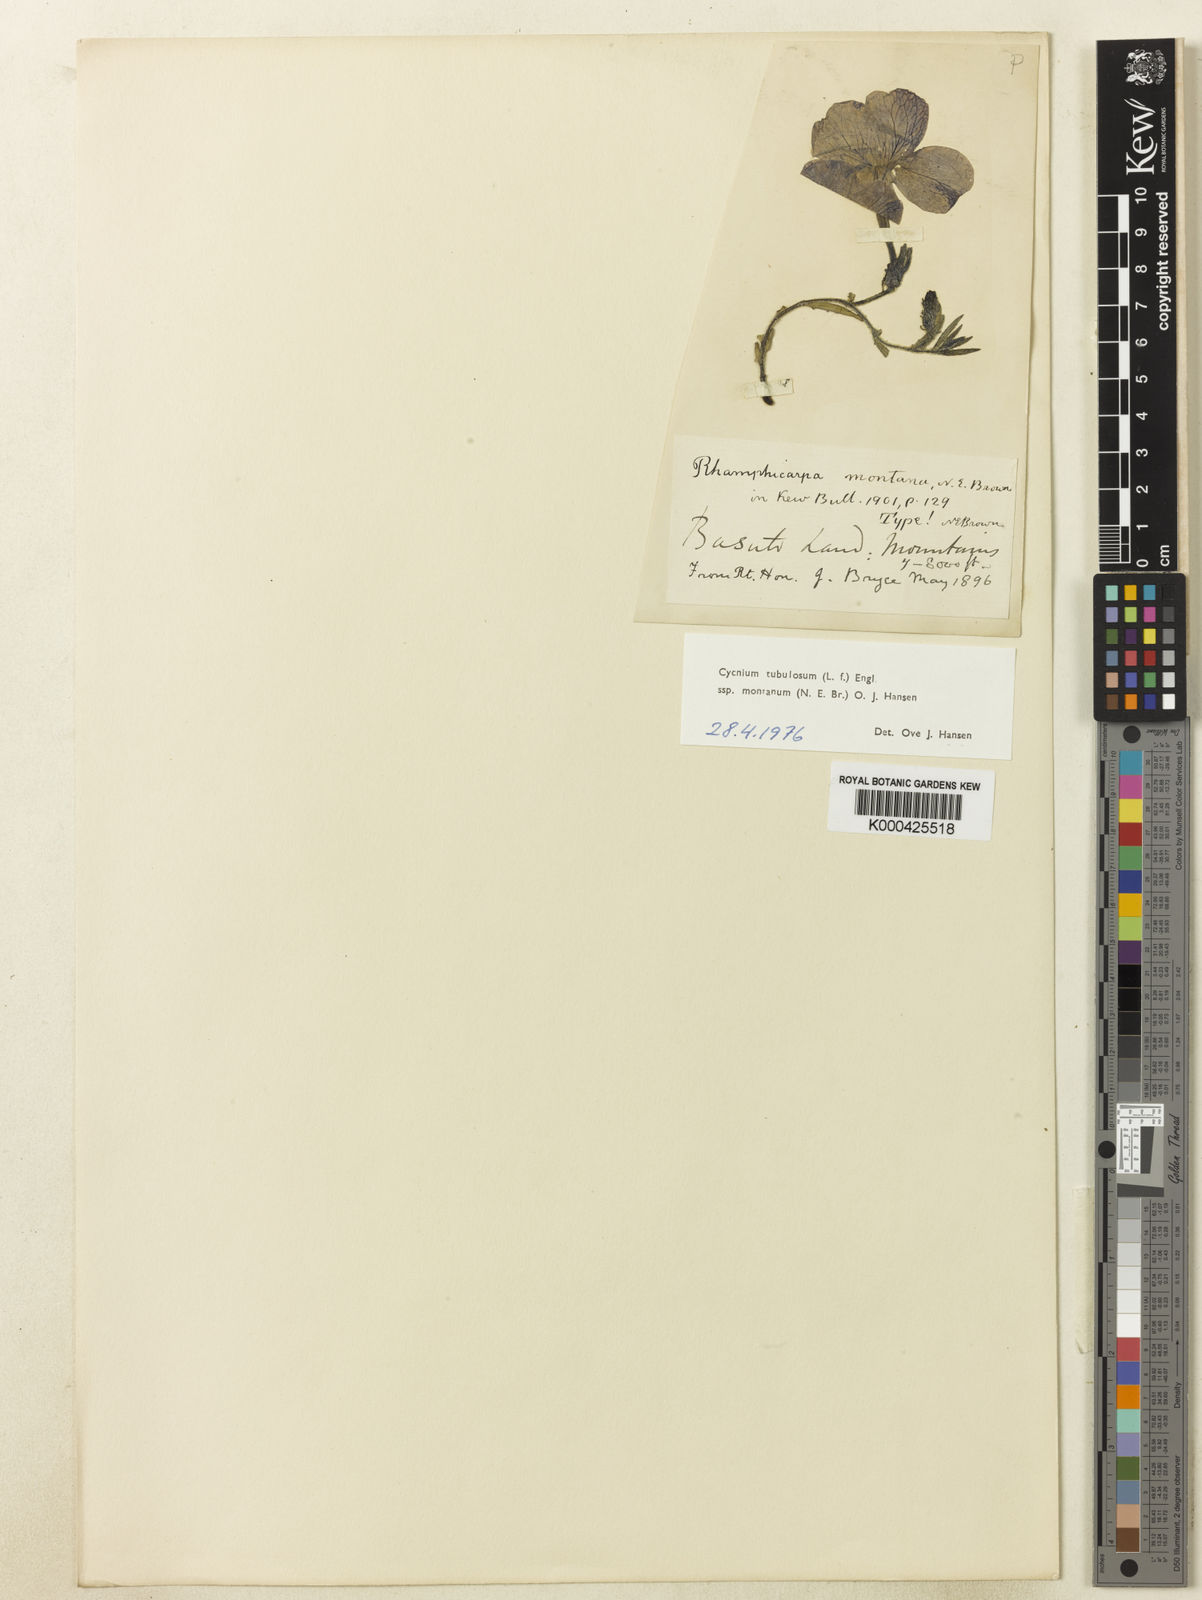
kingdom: Plantae
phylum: Tracheophyta
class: Magnoliopsida
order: Lamiales
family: Orobanchaceae
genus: Cycnium
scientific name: Cycnium tubulosum
